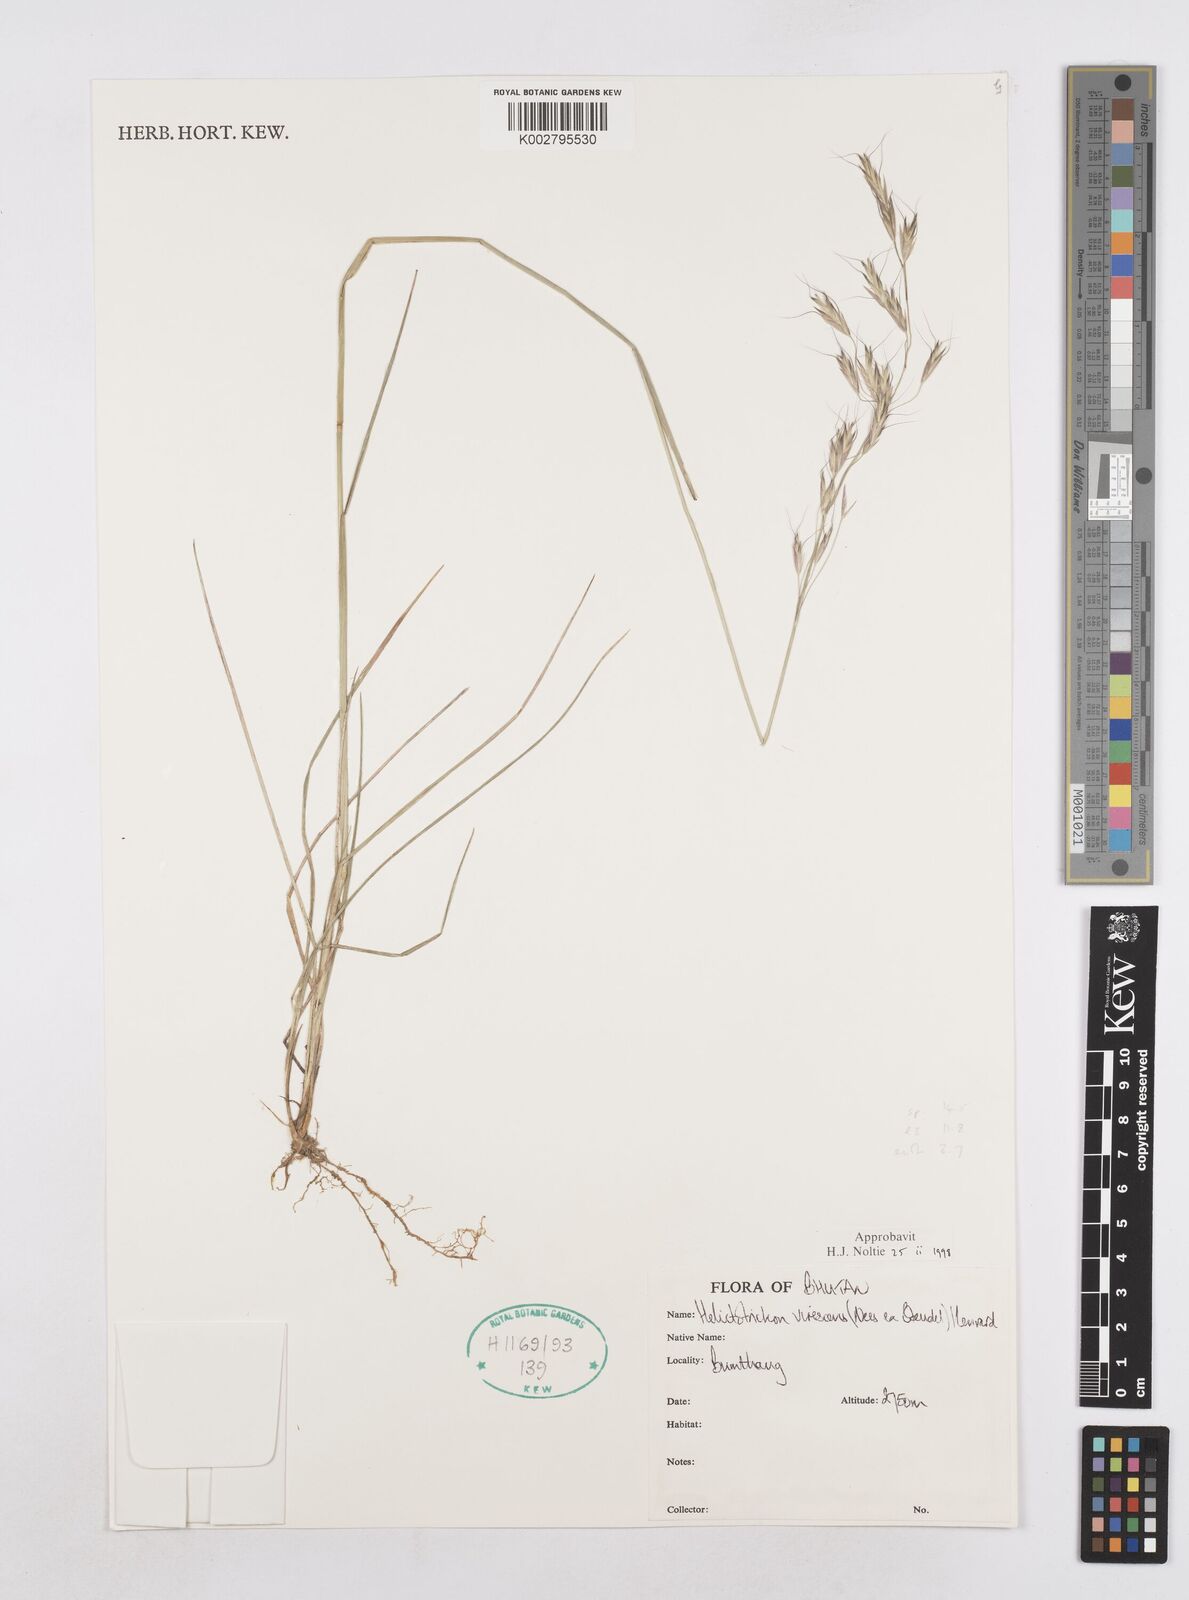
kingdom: Plantae
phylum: Tracheophyta
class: Liliopsida
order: Poales
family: Poaceae
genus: Trisetopsis
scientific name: Trisetopsis junghuhnii
